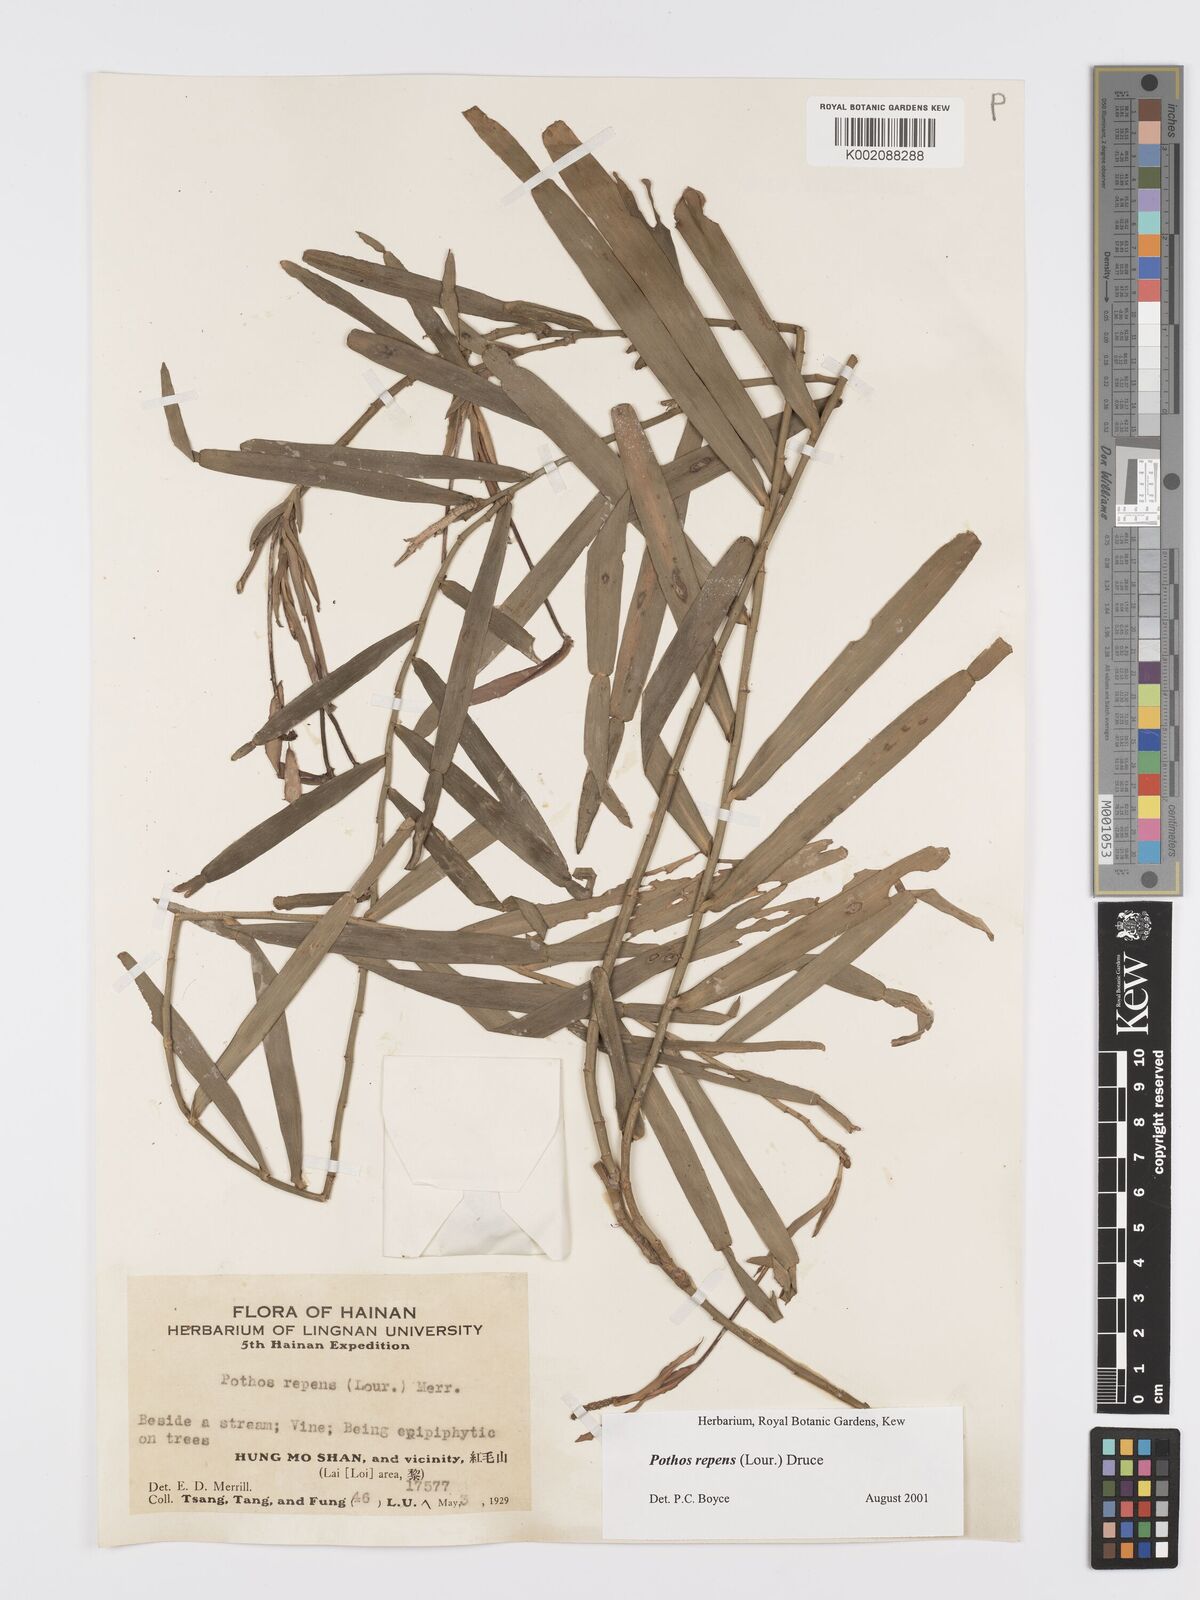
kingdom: Plantae
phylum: Tracheophyta
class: Liliopsida
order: Alismatales
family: Araceae
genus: Pothos
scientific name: Pothos repens
